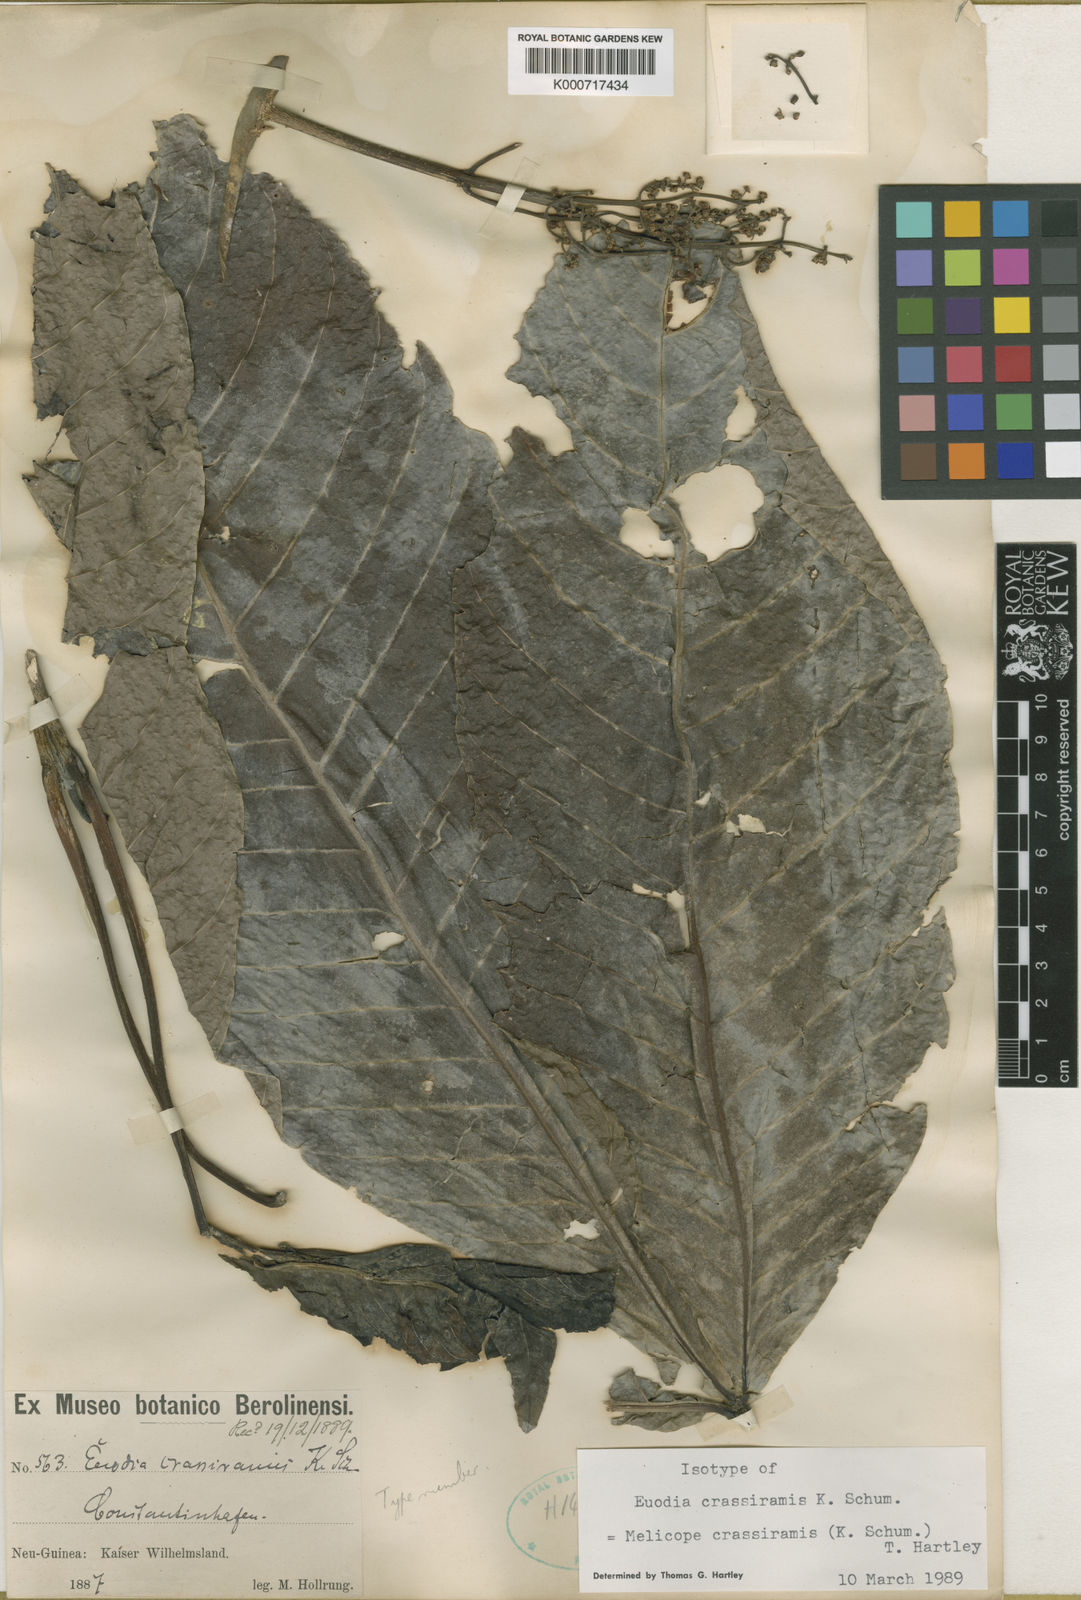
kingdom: Plantae
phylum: Tracheophyta
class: Magnoliopsida
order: Sapindales
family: Rutaceae
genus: Melicope
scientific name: Melicope crassiramis
